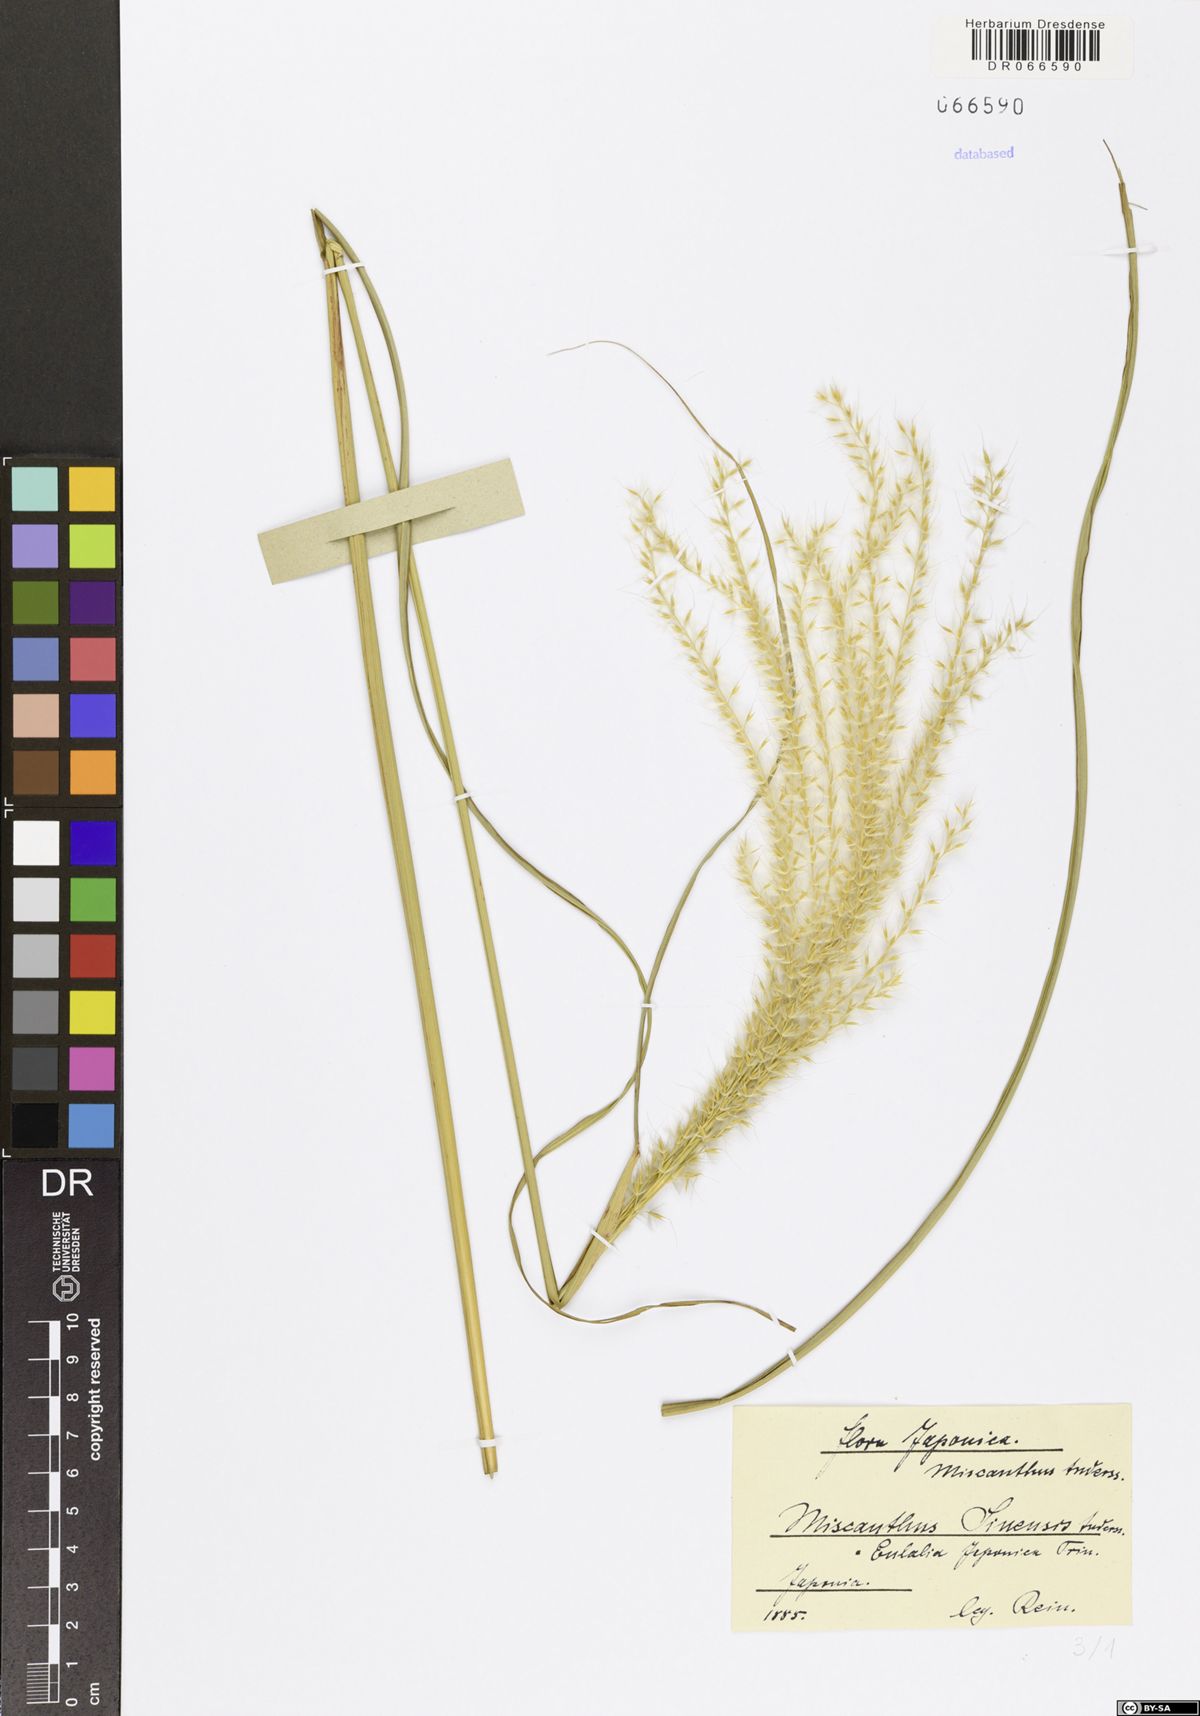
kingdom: Plantae
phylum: Tracheophyta
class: Liliopsida
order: Poales
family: Poaceae
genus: Miscanthus
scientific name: Miscanthus sinensis
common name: Chinese silvergrass
